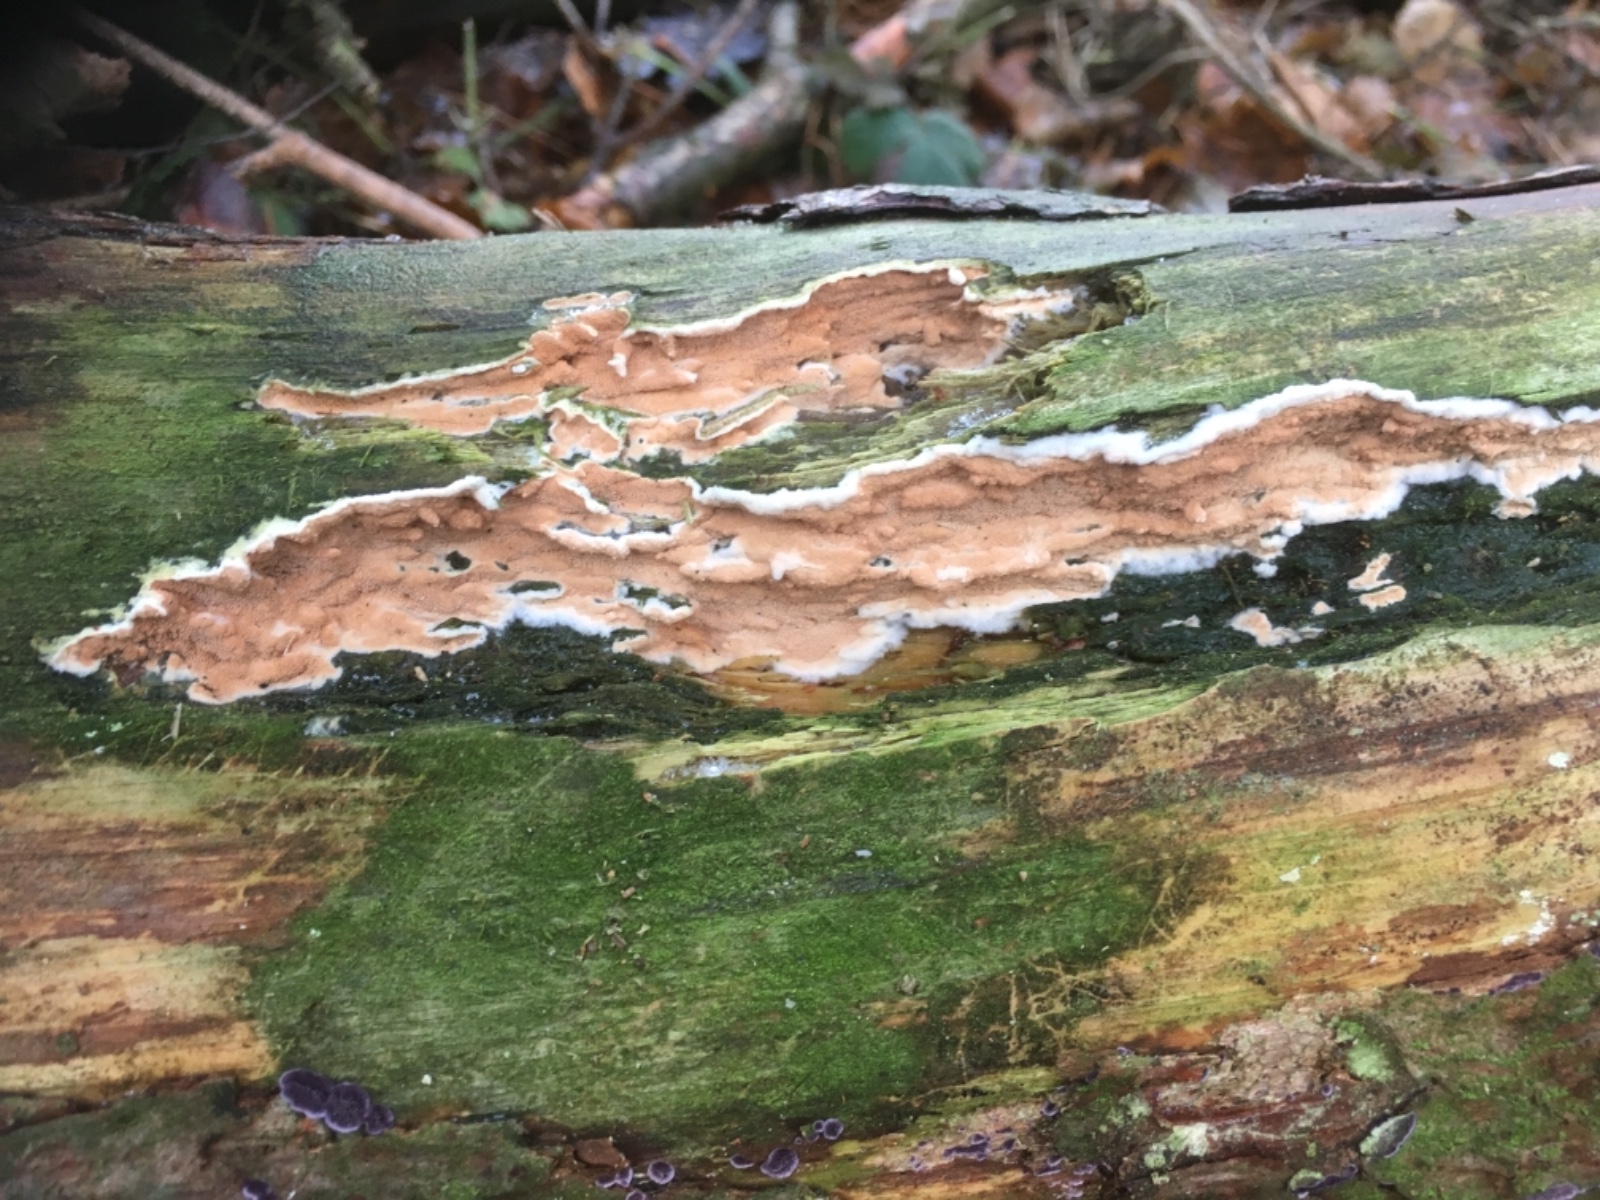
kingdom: Fungi
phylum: Basidiomycota
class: Agaricomycetes
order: Polyporales
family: Irpicaceae
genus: Meruliopsis
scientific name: Meruliopsis taxicola
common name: purpurbrun foldporesvamp
